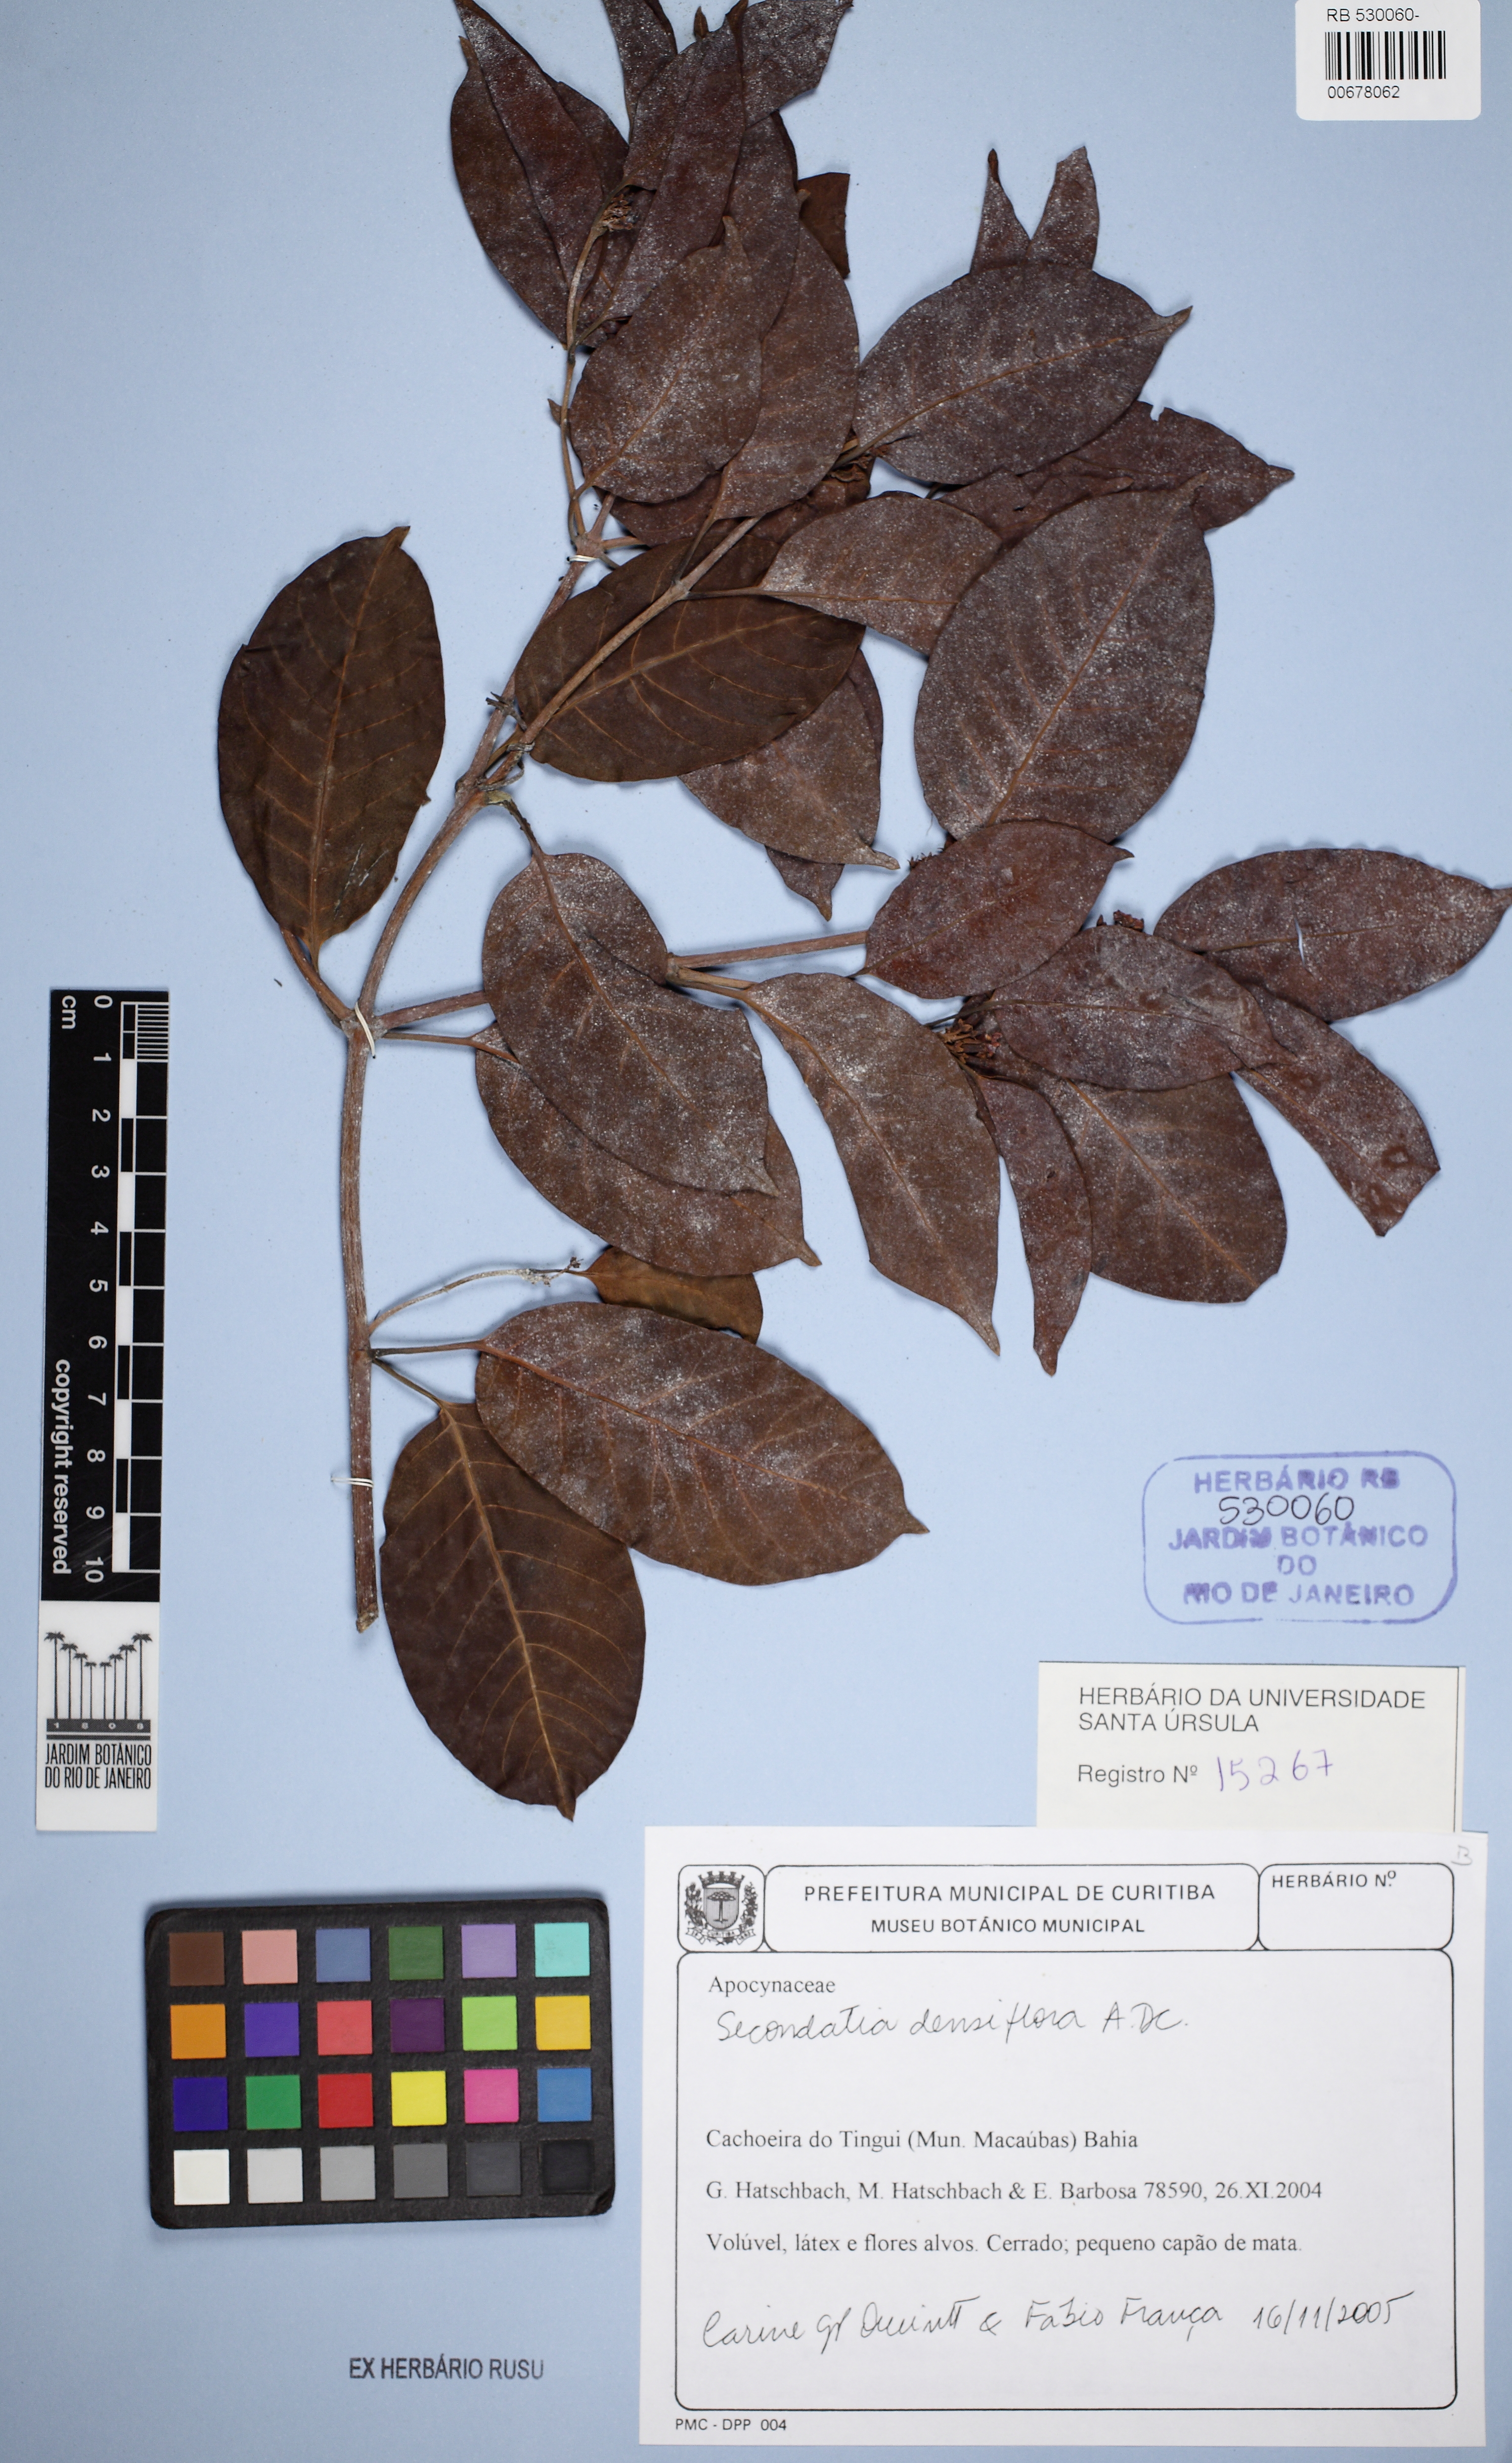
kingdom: Plantae
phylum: Tracheophyta
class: Magnoliopsida
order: Gentianales
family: Apocynaceae
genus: Secondatia
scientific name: Secondatia densiflora
